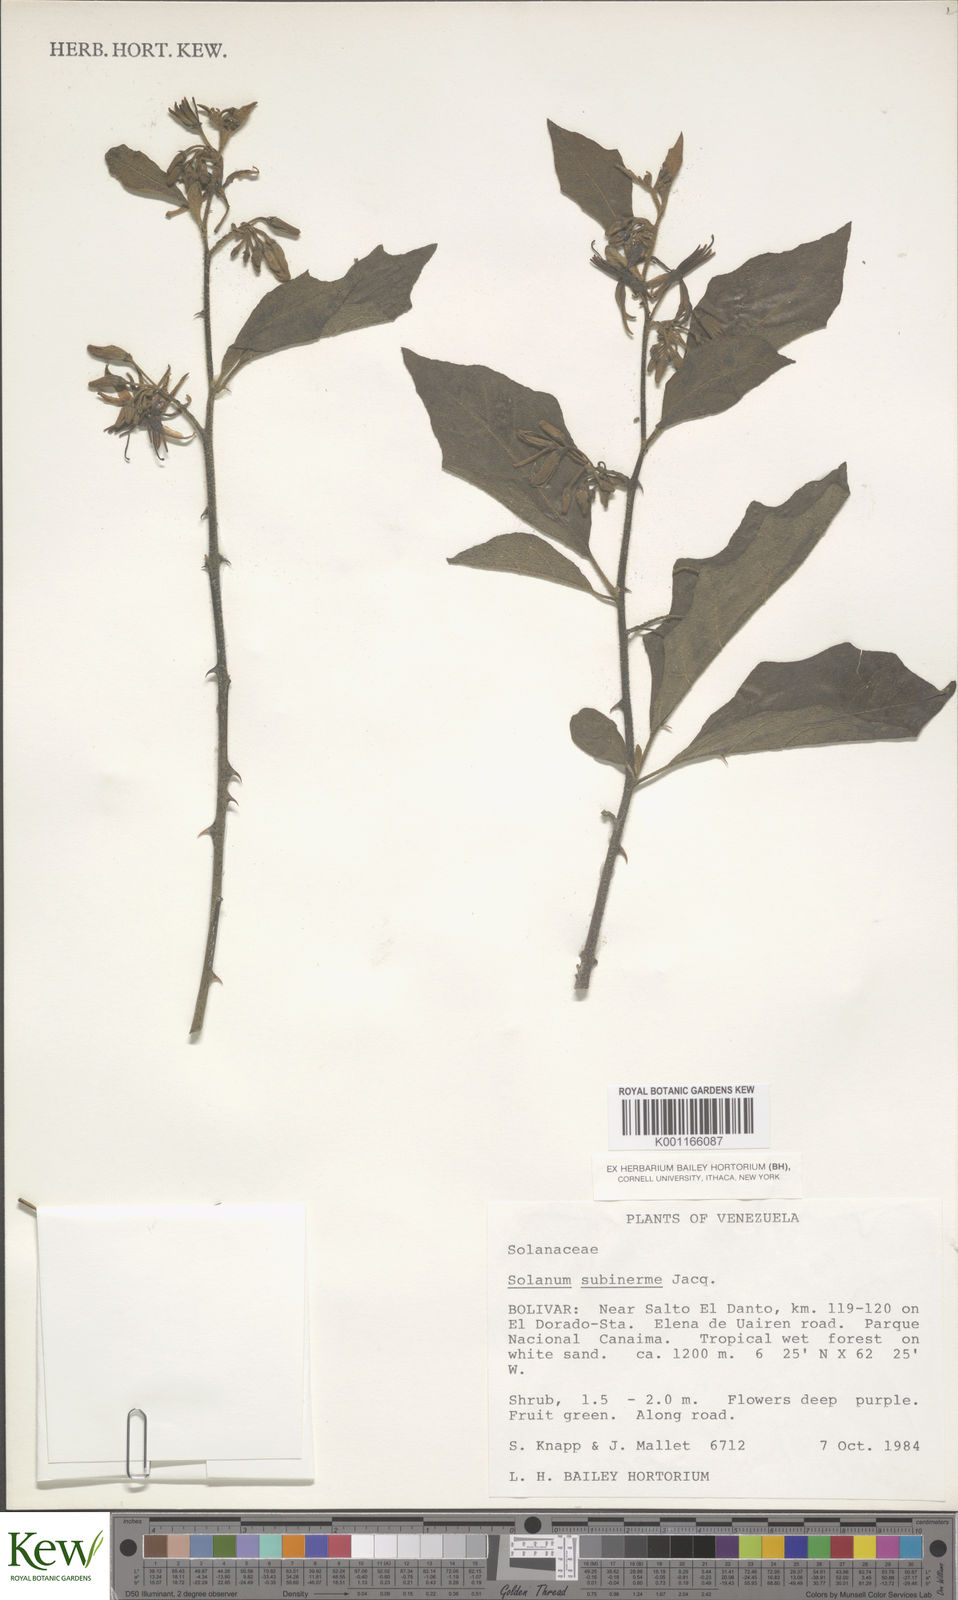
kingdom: Plantae
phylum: Tracheophyta
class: Magnoliopsida
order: Solanales
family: Solanaceae
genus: Solanum
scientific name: Solanum subinerme
